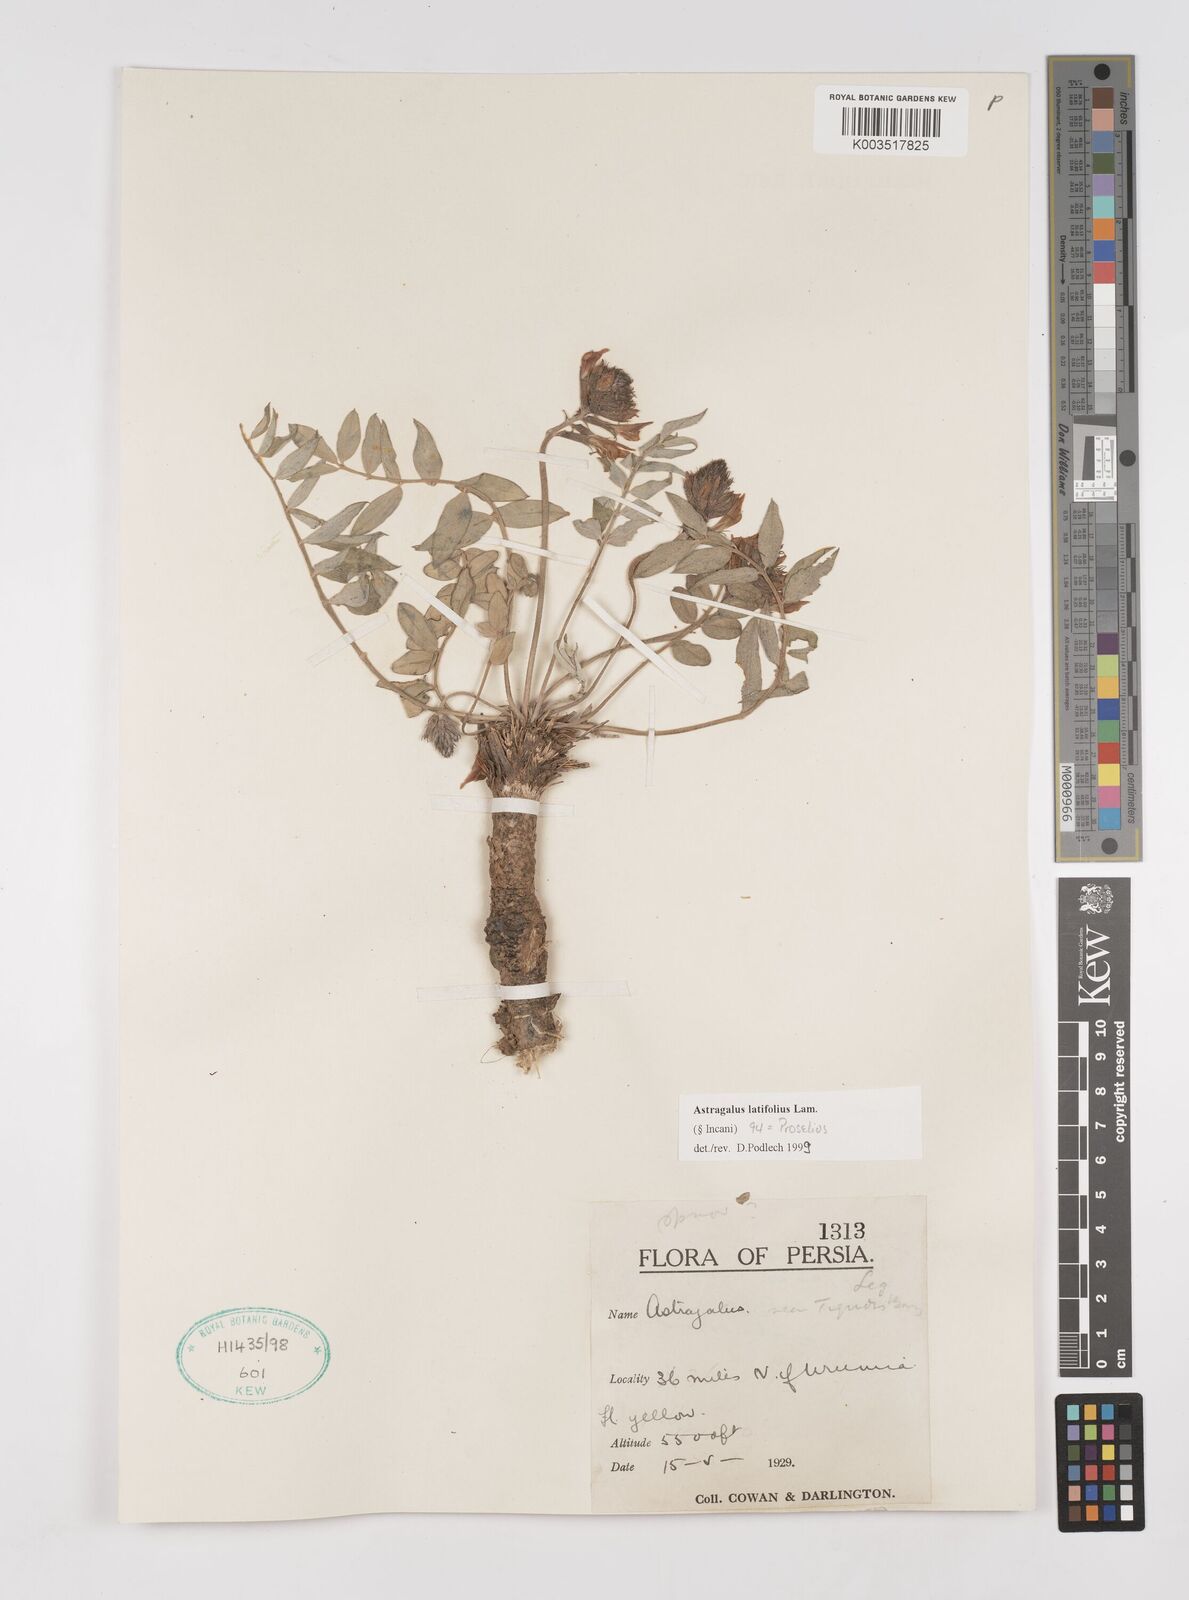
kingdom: Plantae
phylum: Tracheophyta
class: Magnoliopsida
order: Fabales
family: Fabaceae
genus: Astragalus
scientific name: Astragalus latifolius
